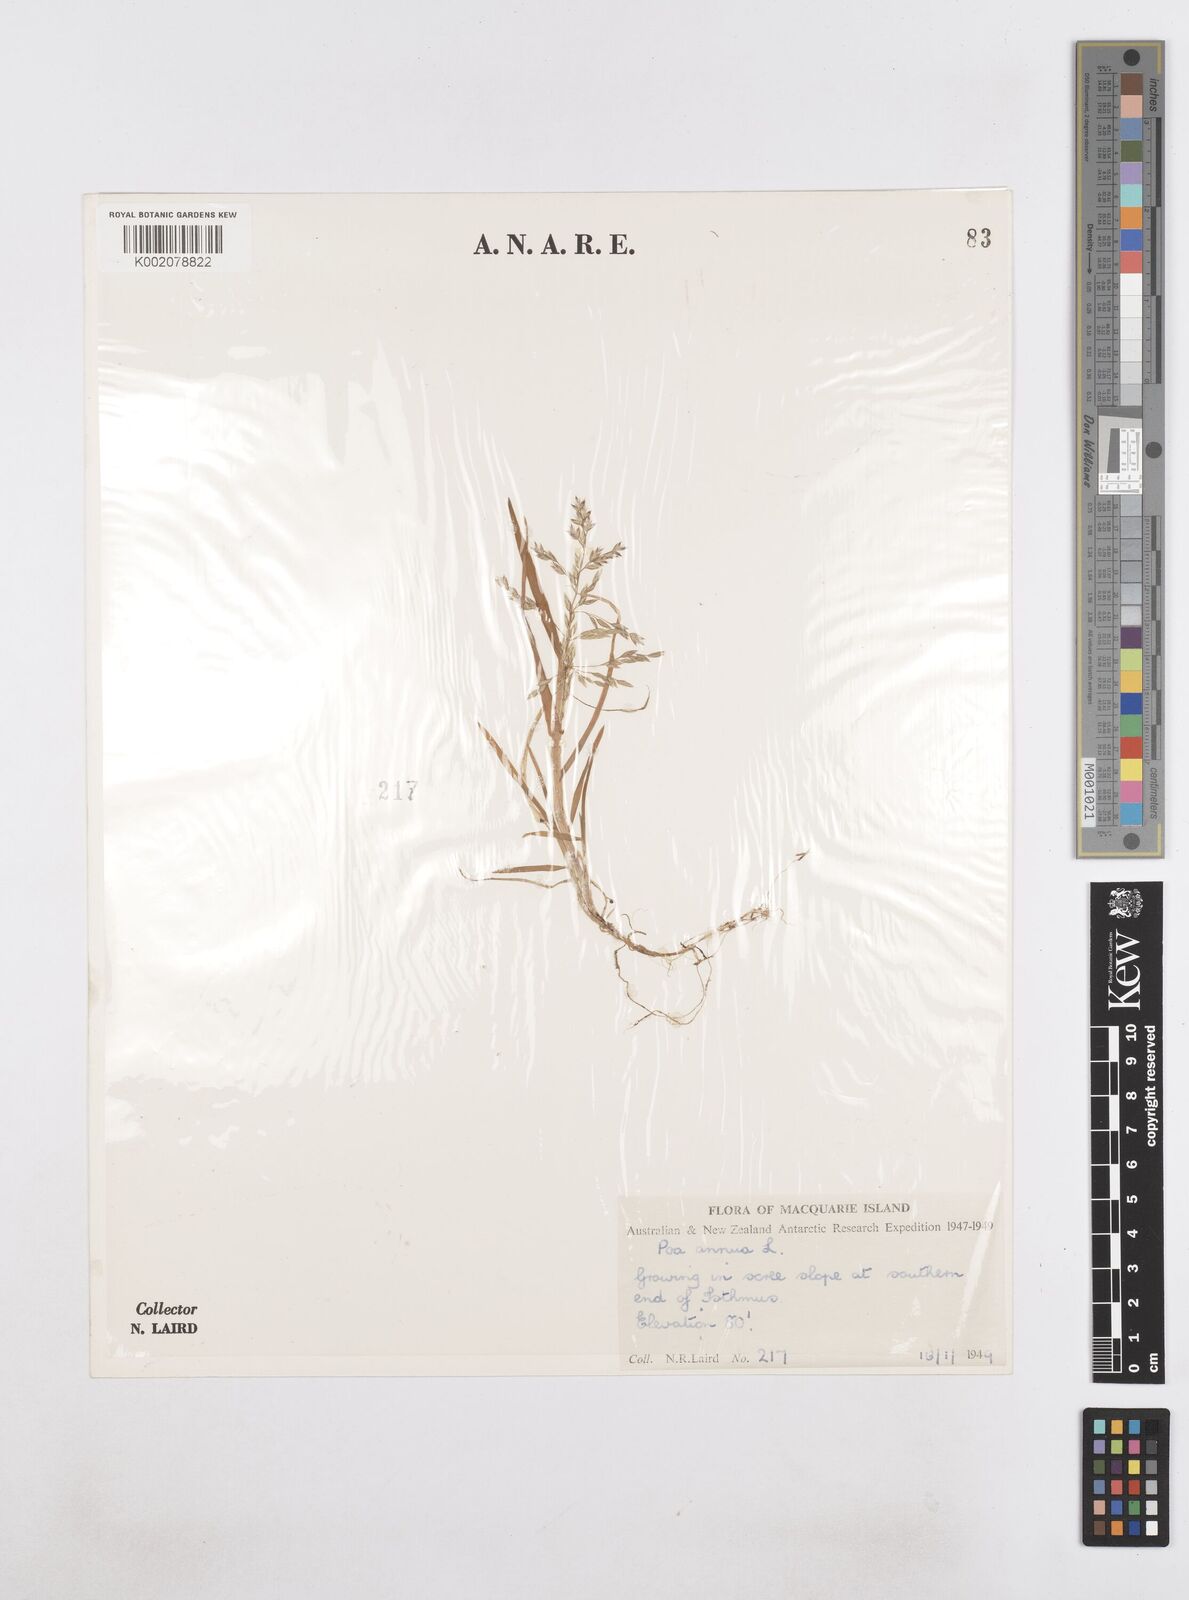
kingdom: Plantae
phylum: Tracheophyta
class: Liliopsida
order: Poales
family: Poaceae
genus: Poa
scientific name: Poa annua
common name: Annual bluegrass
